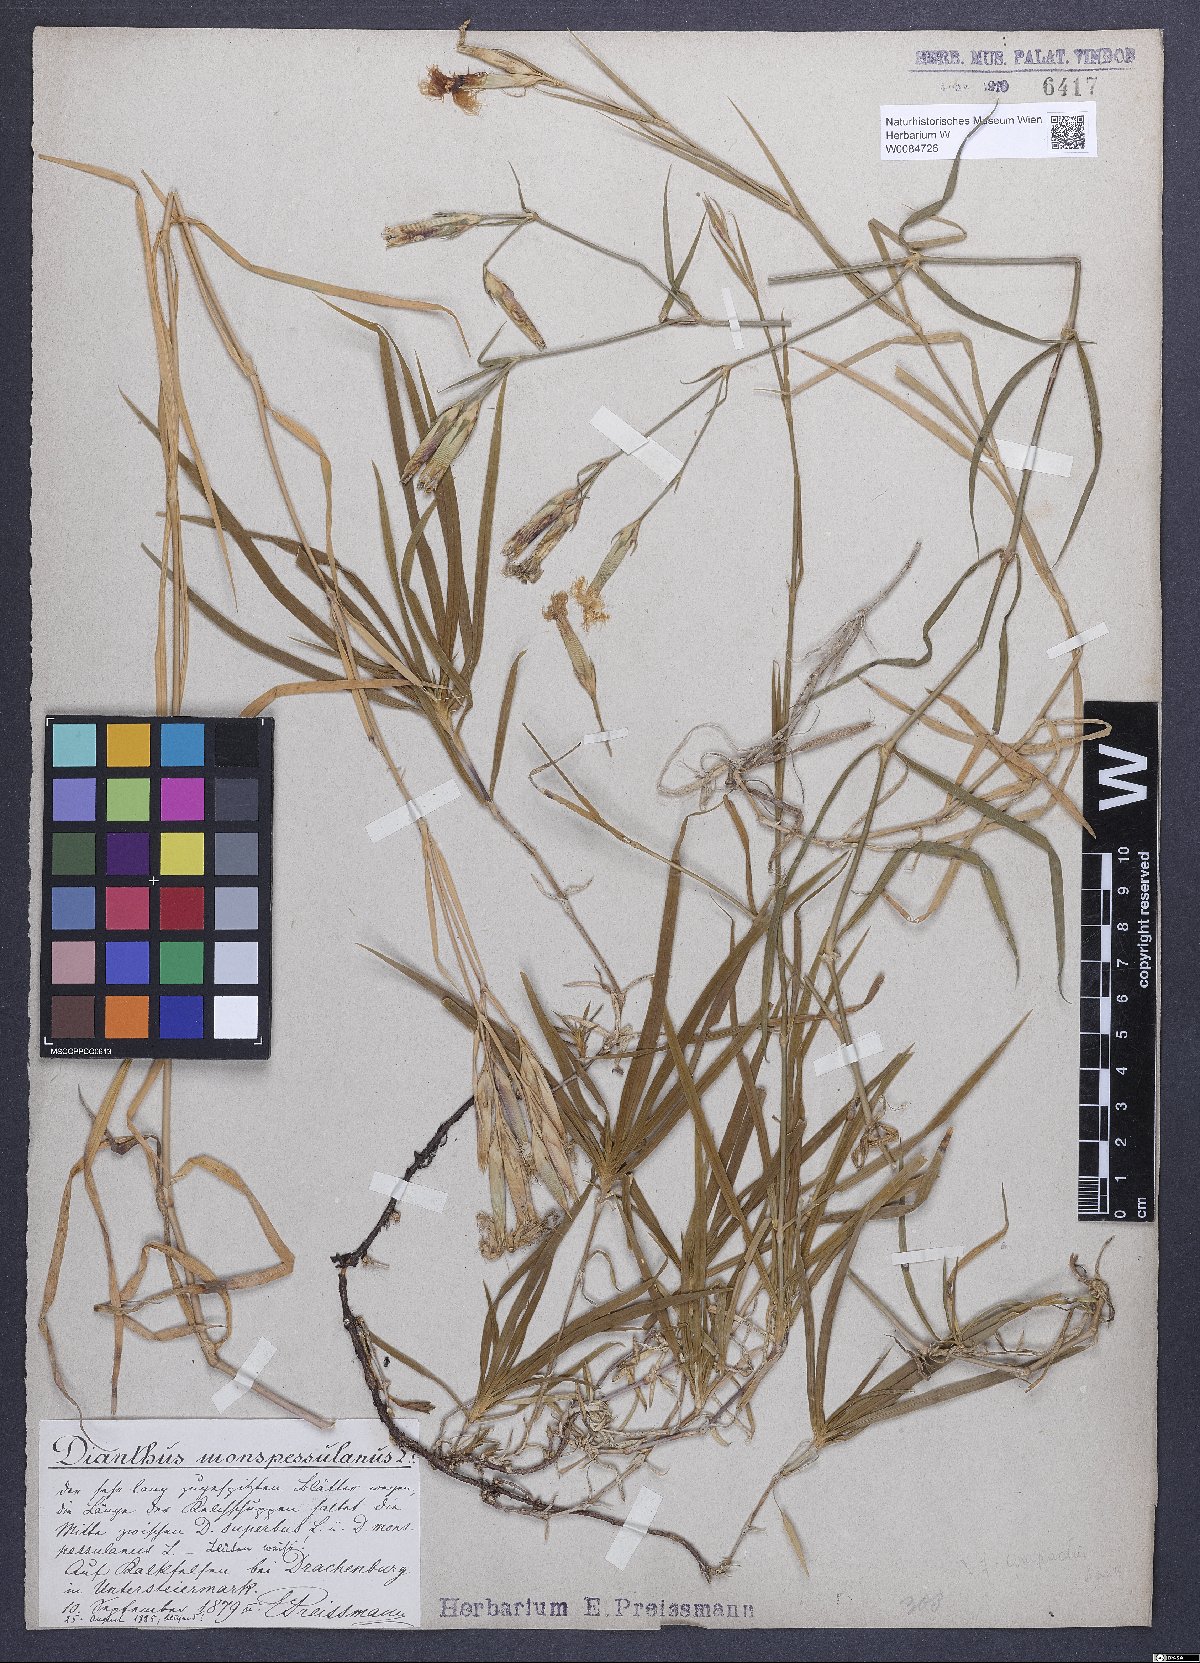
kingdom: Plantae
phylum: Tracheophyta
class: Magnoliopsida
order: Caryophyllales
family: Caryophyllaceae
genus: Dianthus
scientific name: Dianthus hyssopifolius
